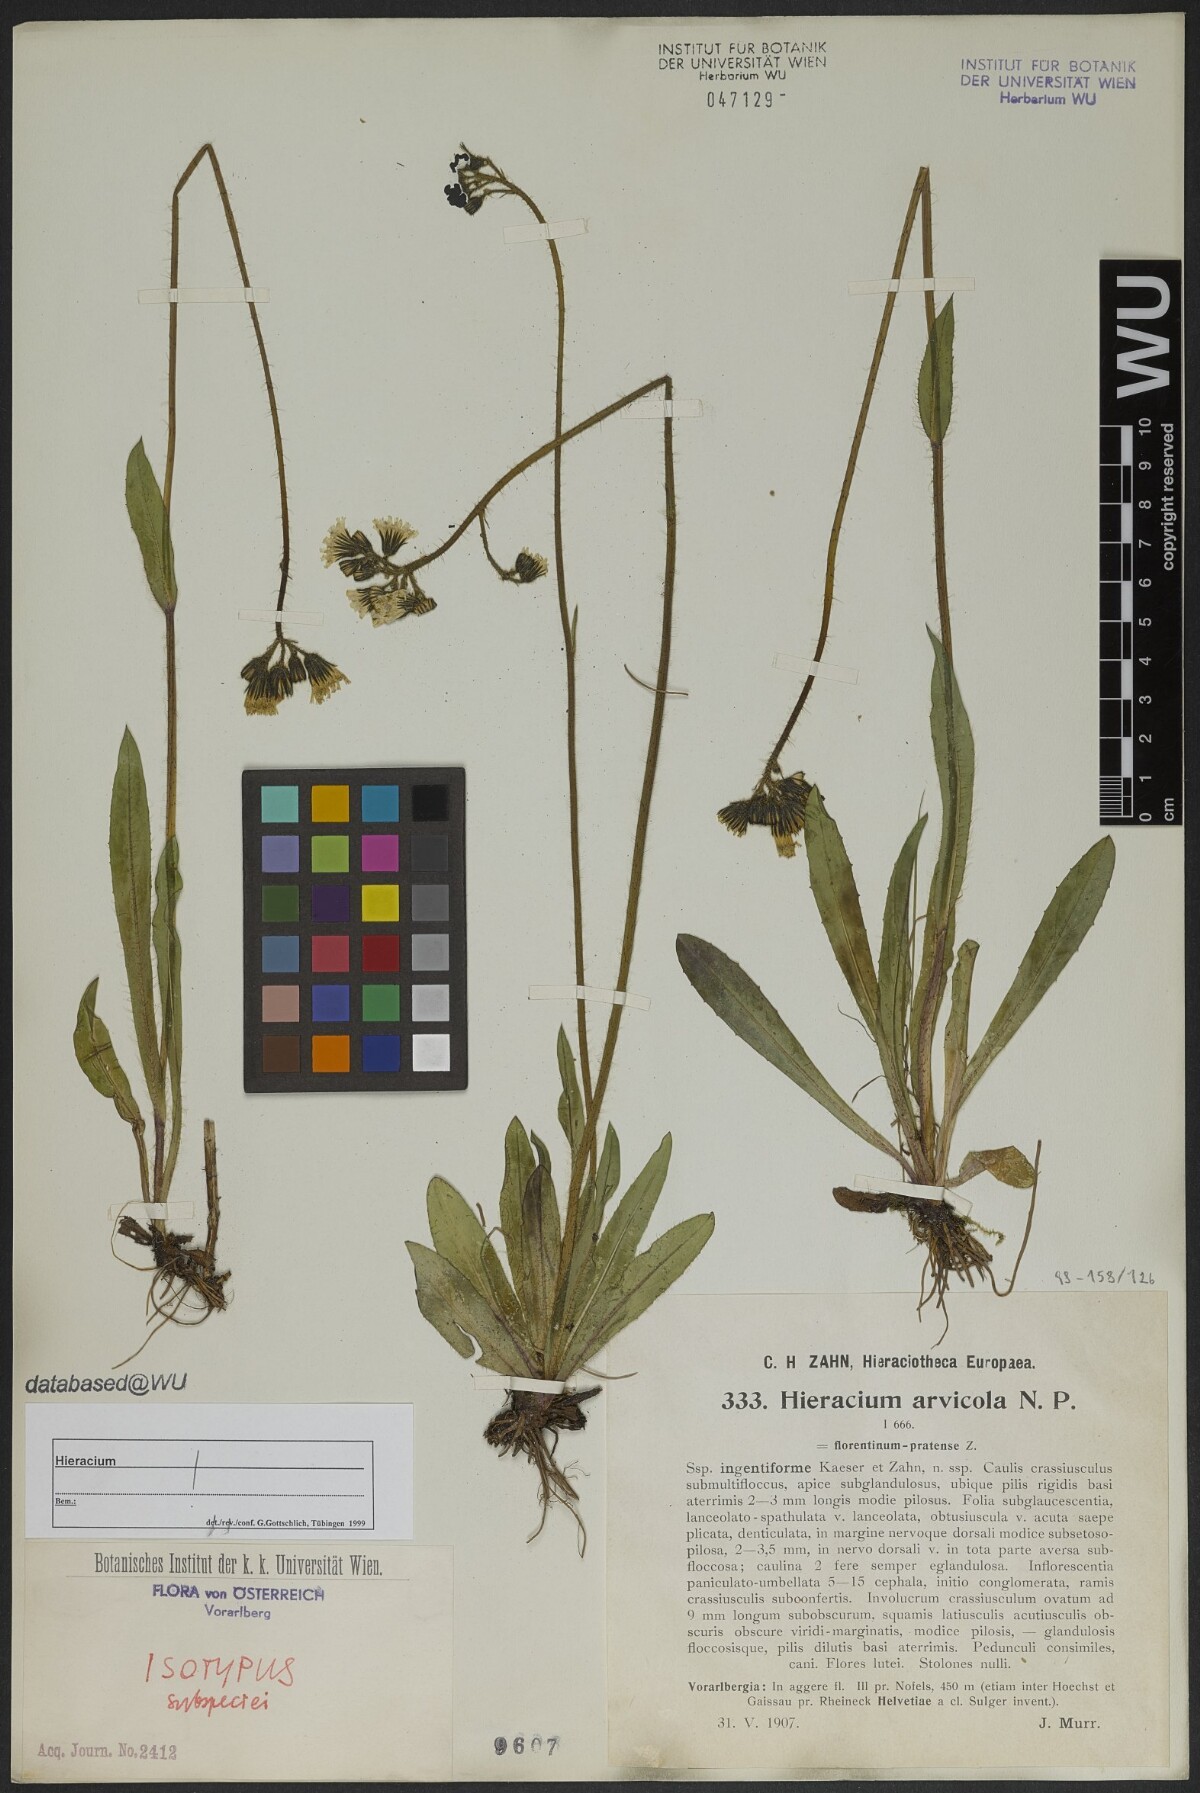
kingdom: Plantae
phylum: Tracheophyta
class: Magnoliopsida
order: Asterales
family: Asteraceae
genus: Pilosella
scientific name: Pilosella erythrochrista
